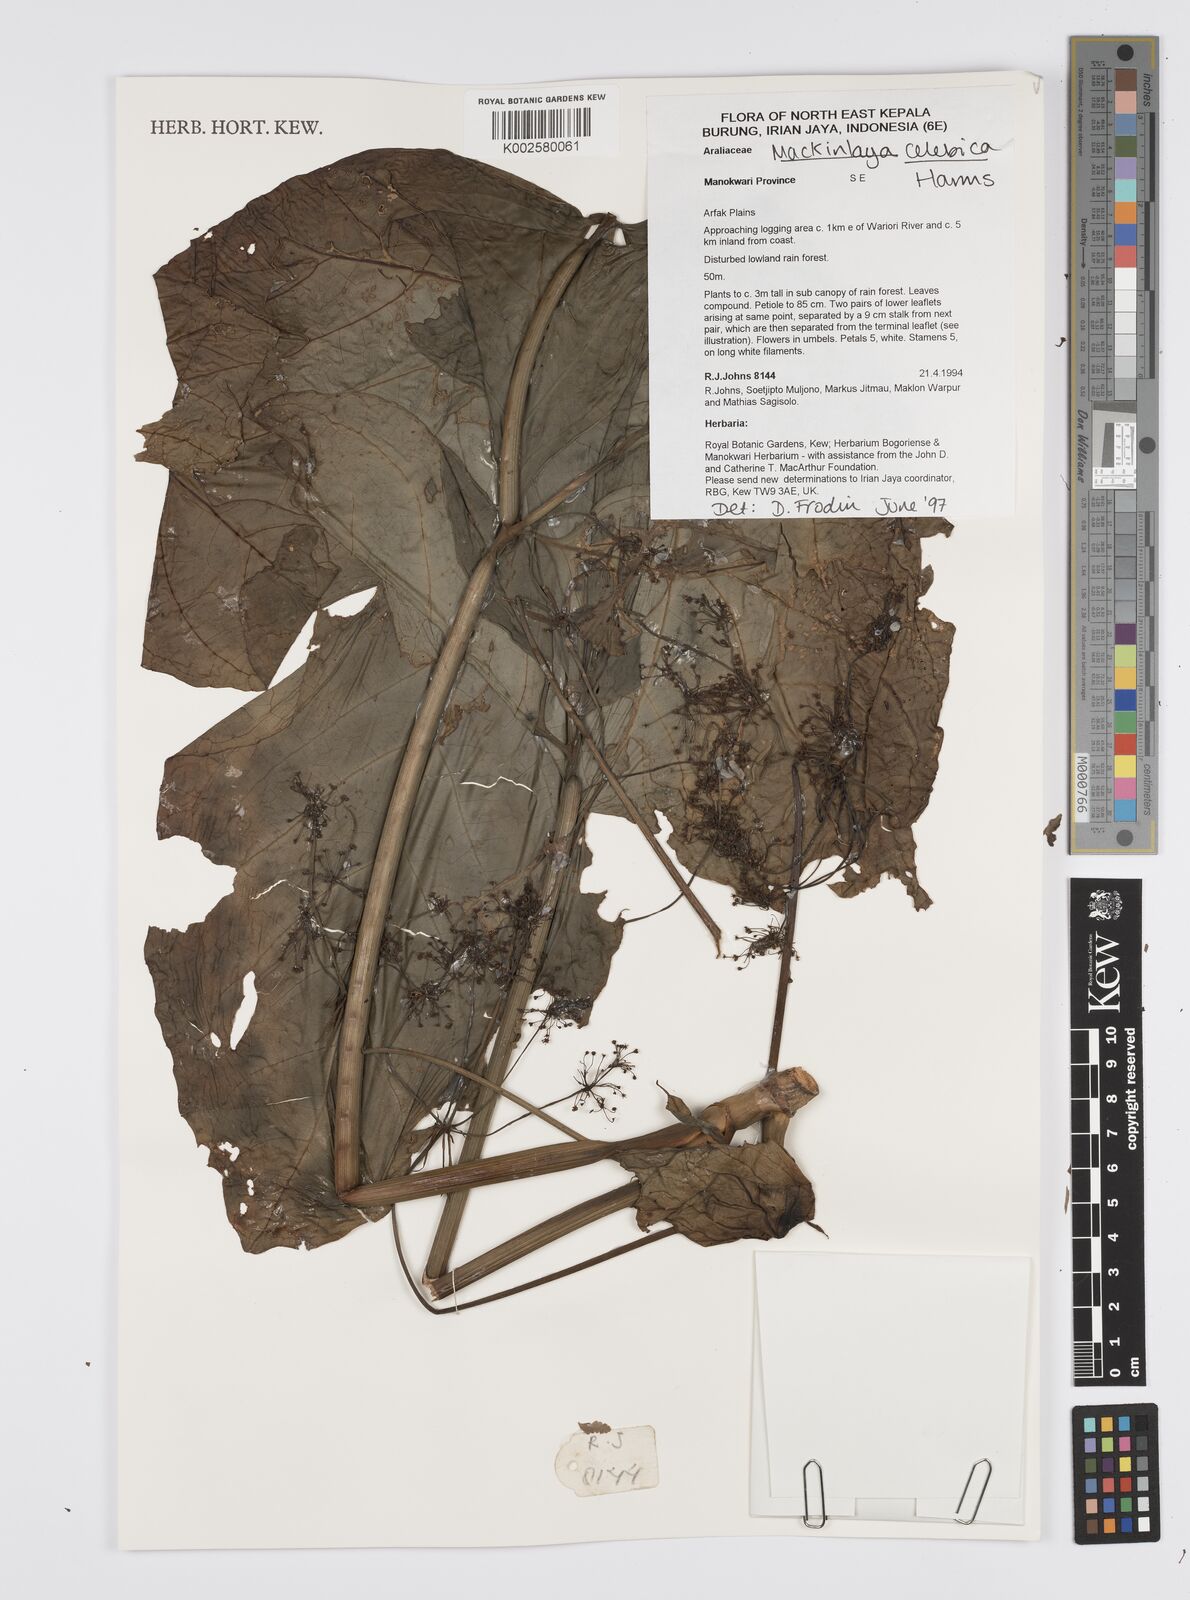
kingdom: Plantae
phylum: Tracheophyta
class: Magnoliopsida
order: Apiales
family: Apiaceae
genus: Mackinlaya
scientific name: Mackinlaya celebica
